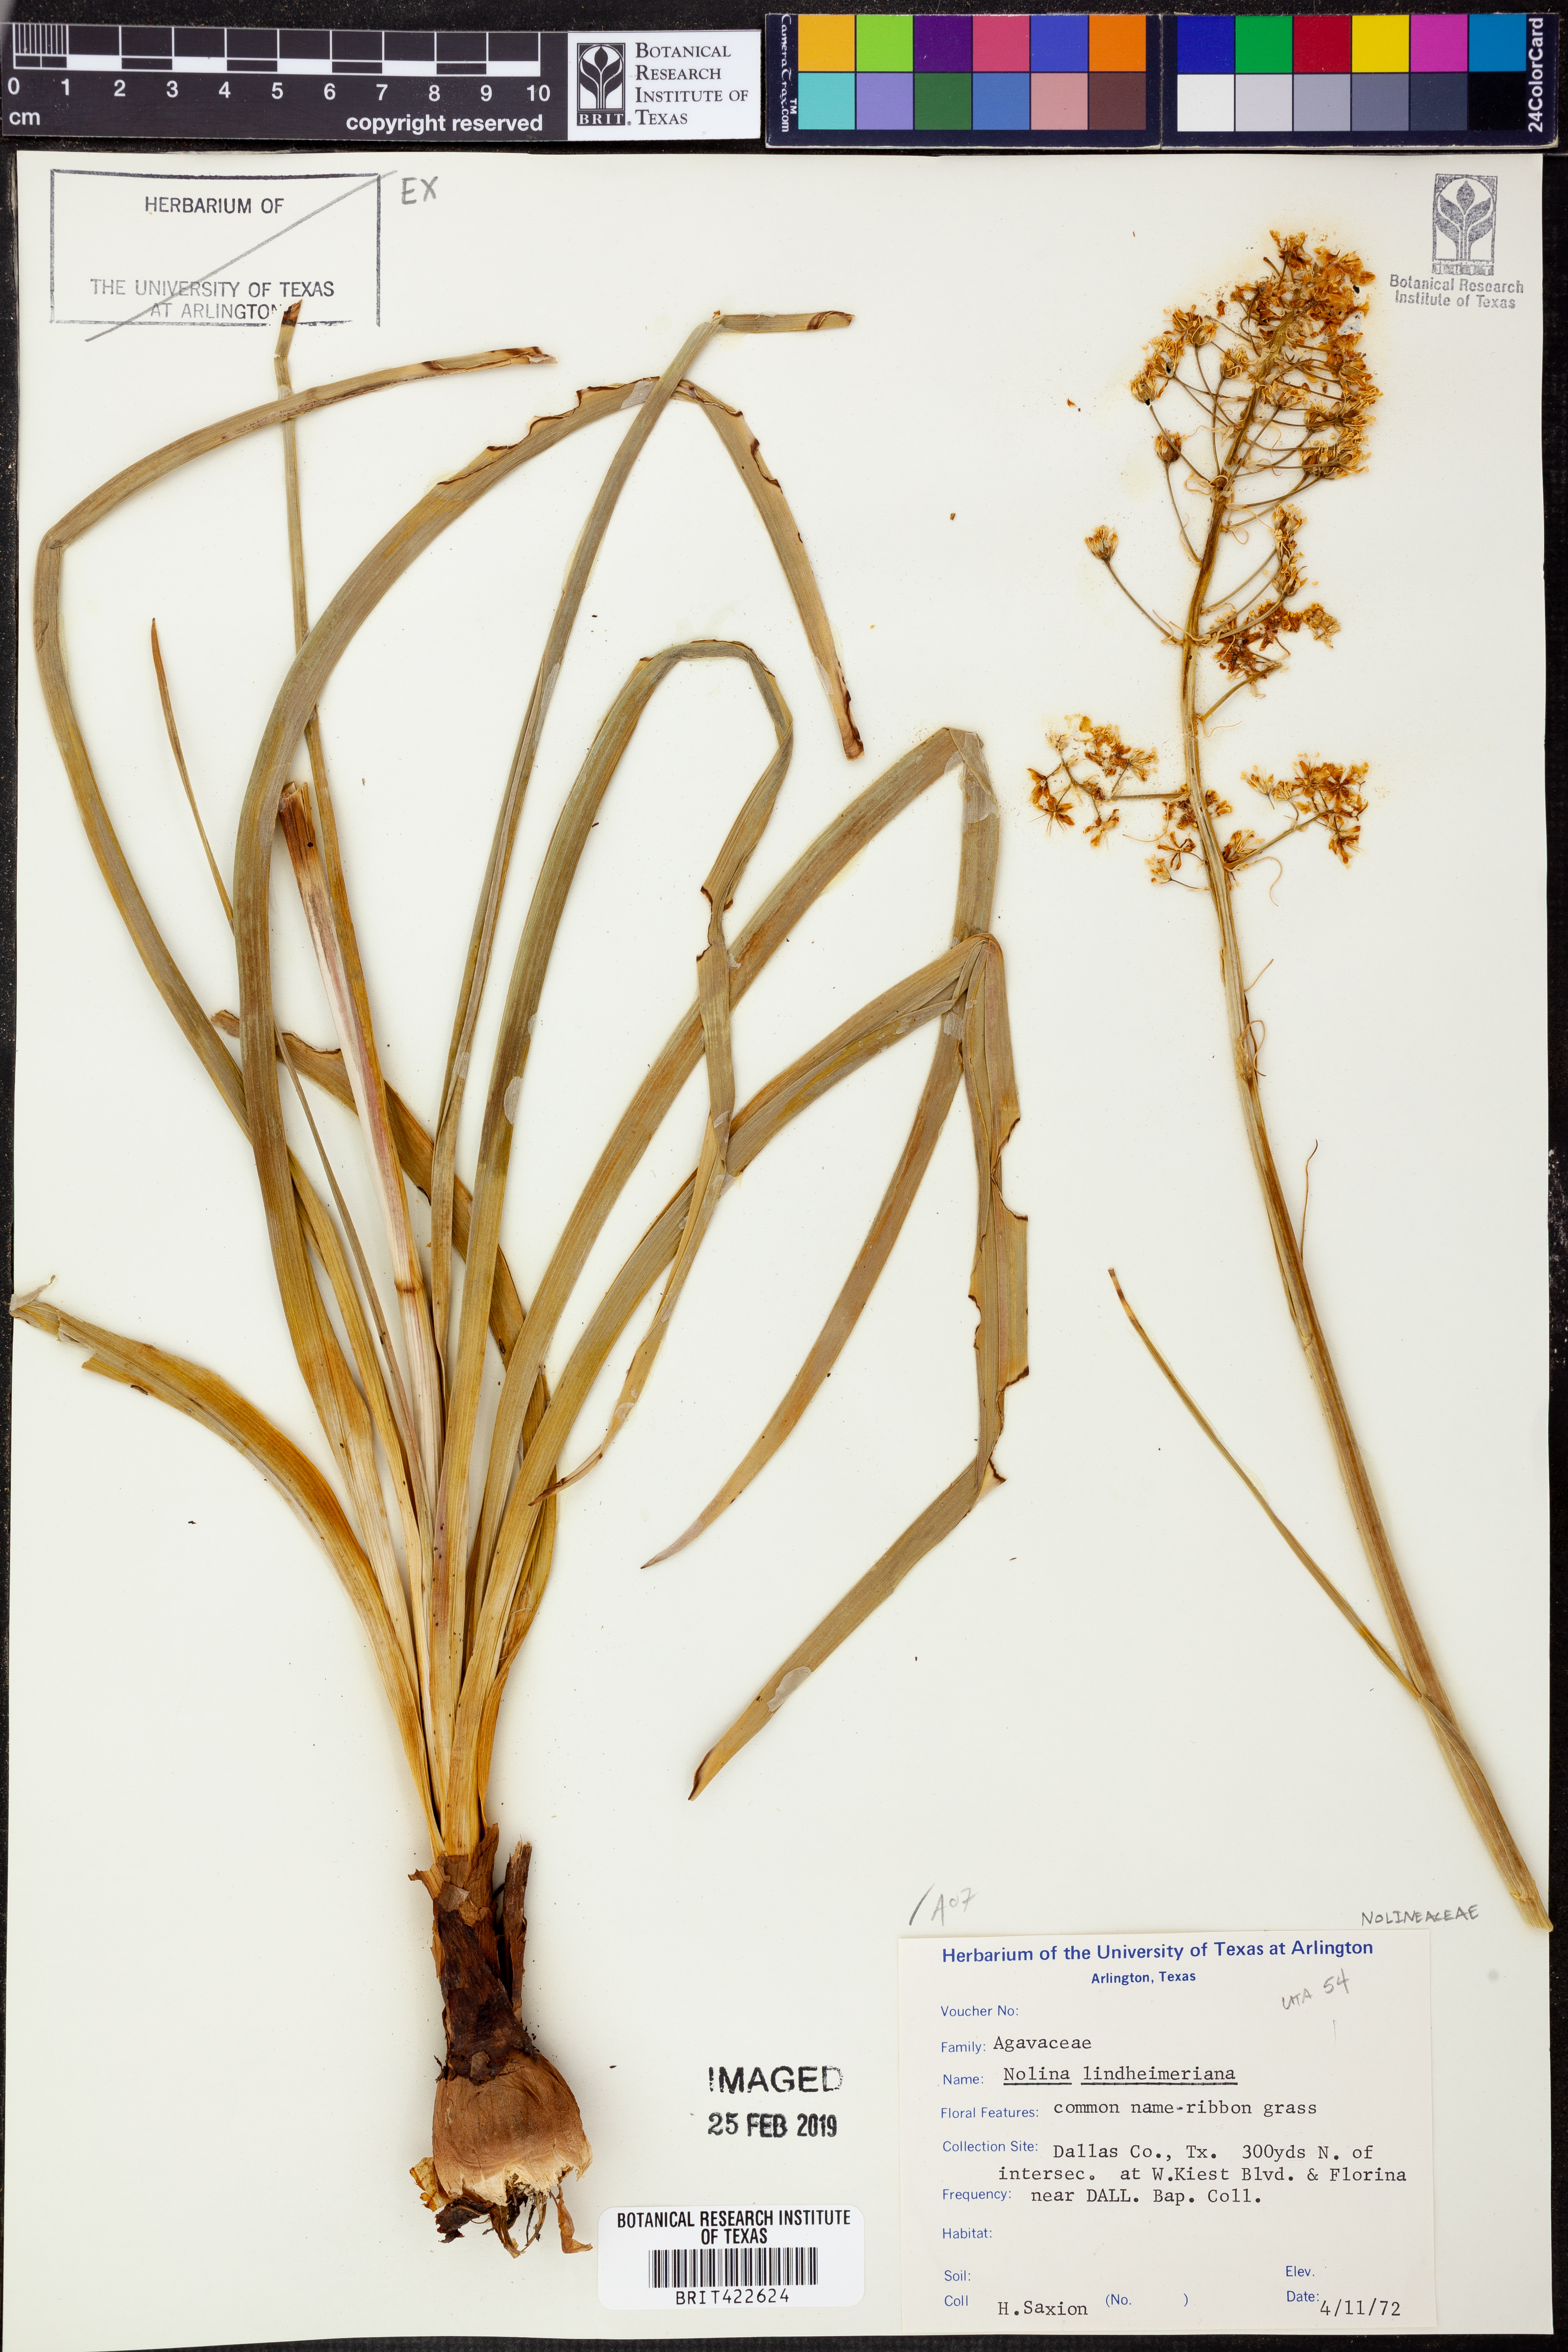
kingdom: Plantae
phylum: Tracheophyta
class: Liliopsida
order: Asparagales
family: Asparagaceae
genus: Nolina
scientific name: Nolina lindheimeriana
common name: Lindheimer's bear-grass
